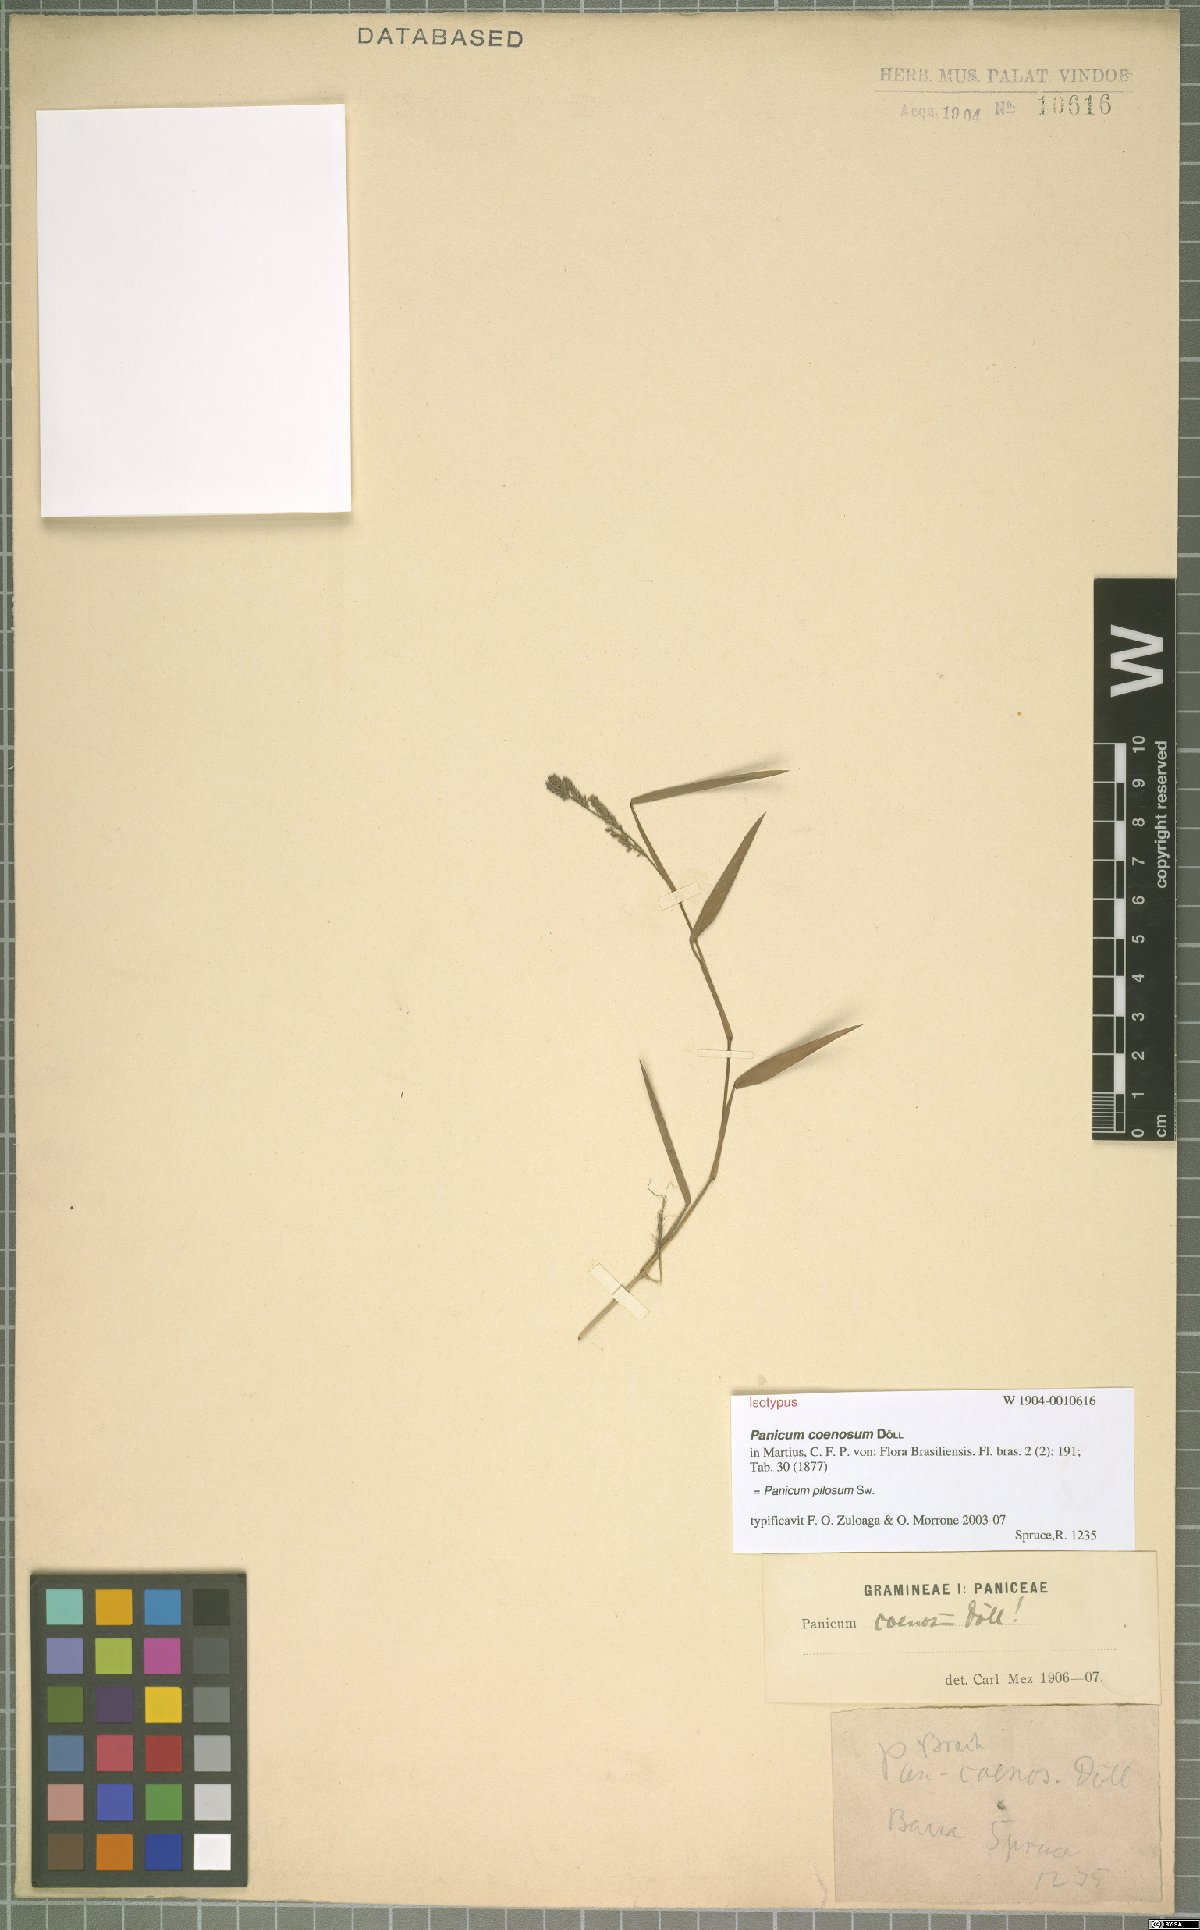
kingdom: Plantae
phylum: Tracheophyta
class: Liliopsida
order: Poales
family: Poaceae
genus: Rugoloa
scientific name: Rugoloa pilosa
